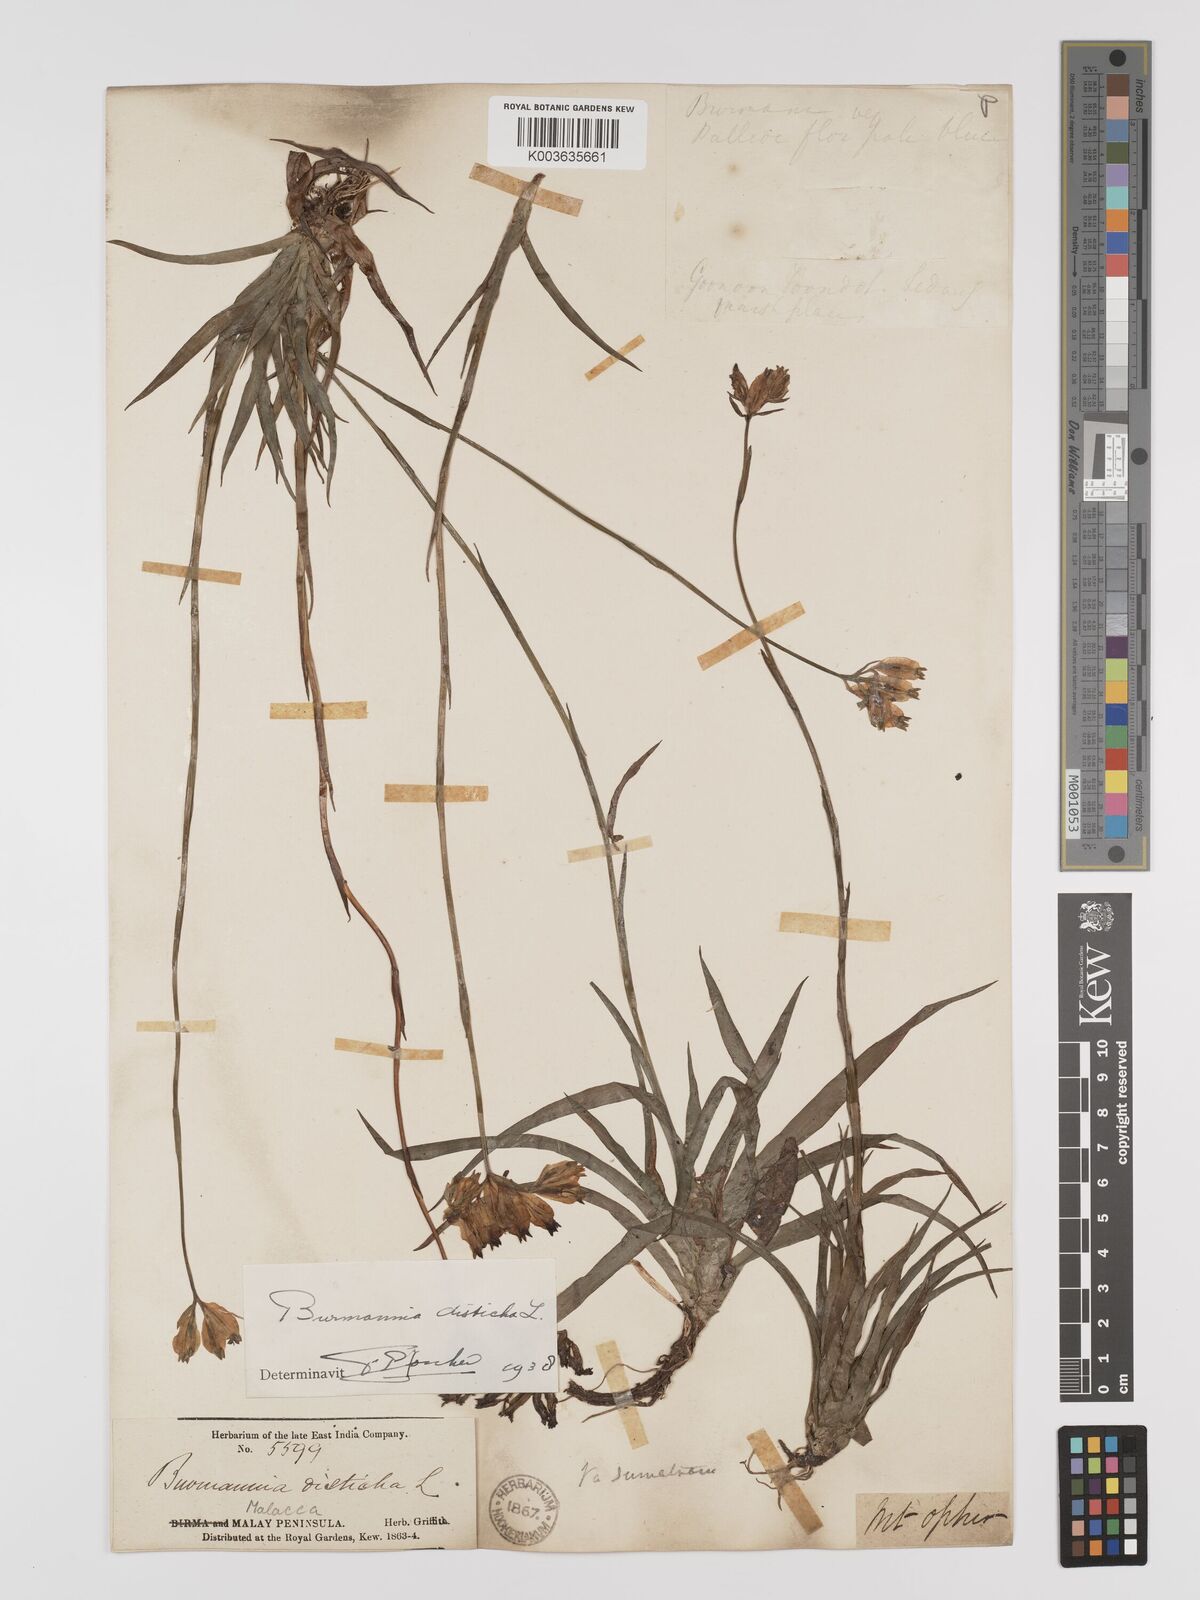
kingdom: Plantae
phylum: Tracheophyta
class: Liliopsida
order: Dioscoreales
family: Burmanniaceae
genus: Burmannia
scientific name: Burmannia disticha
